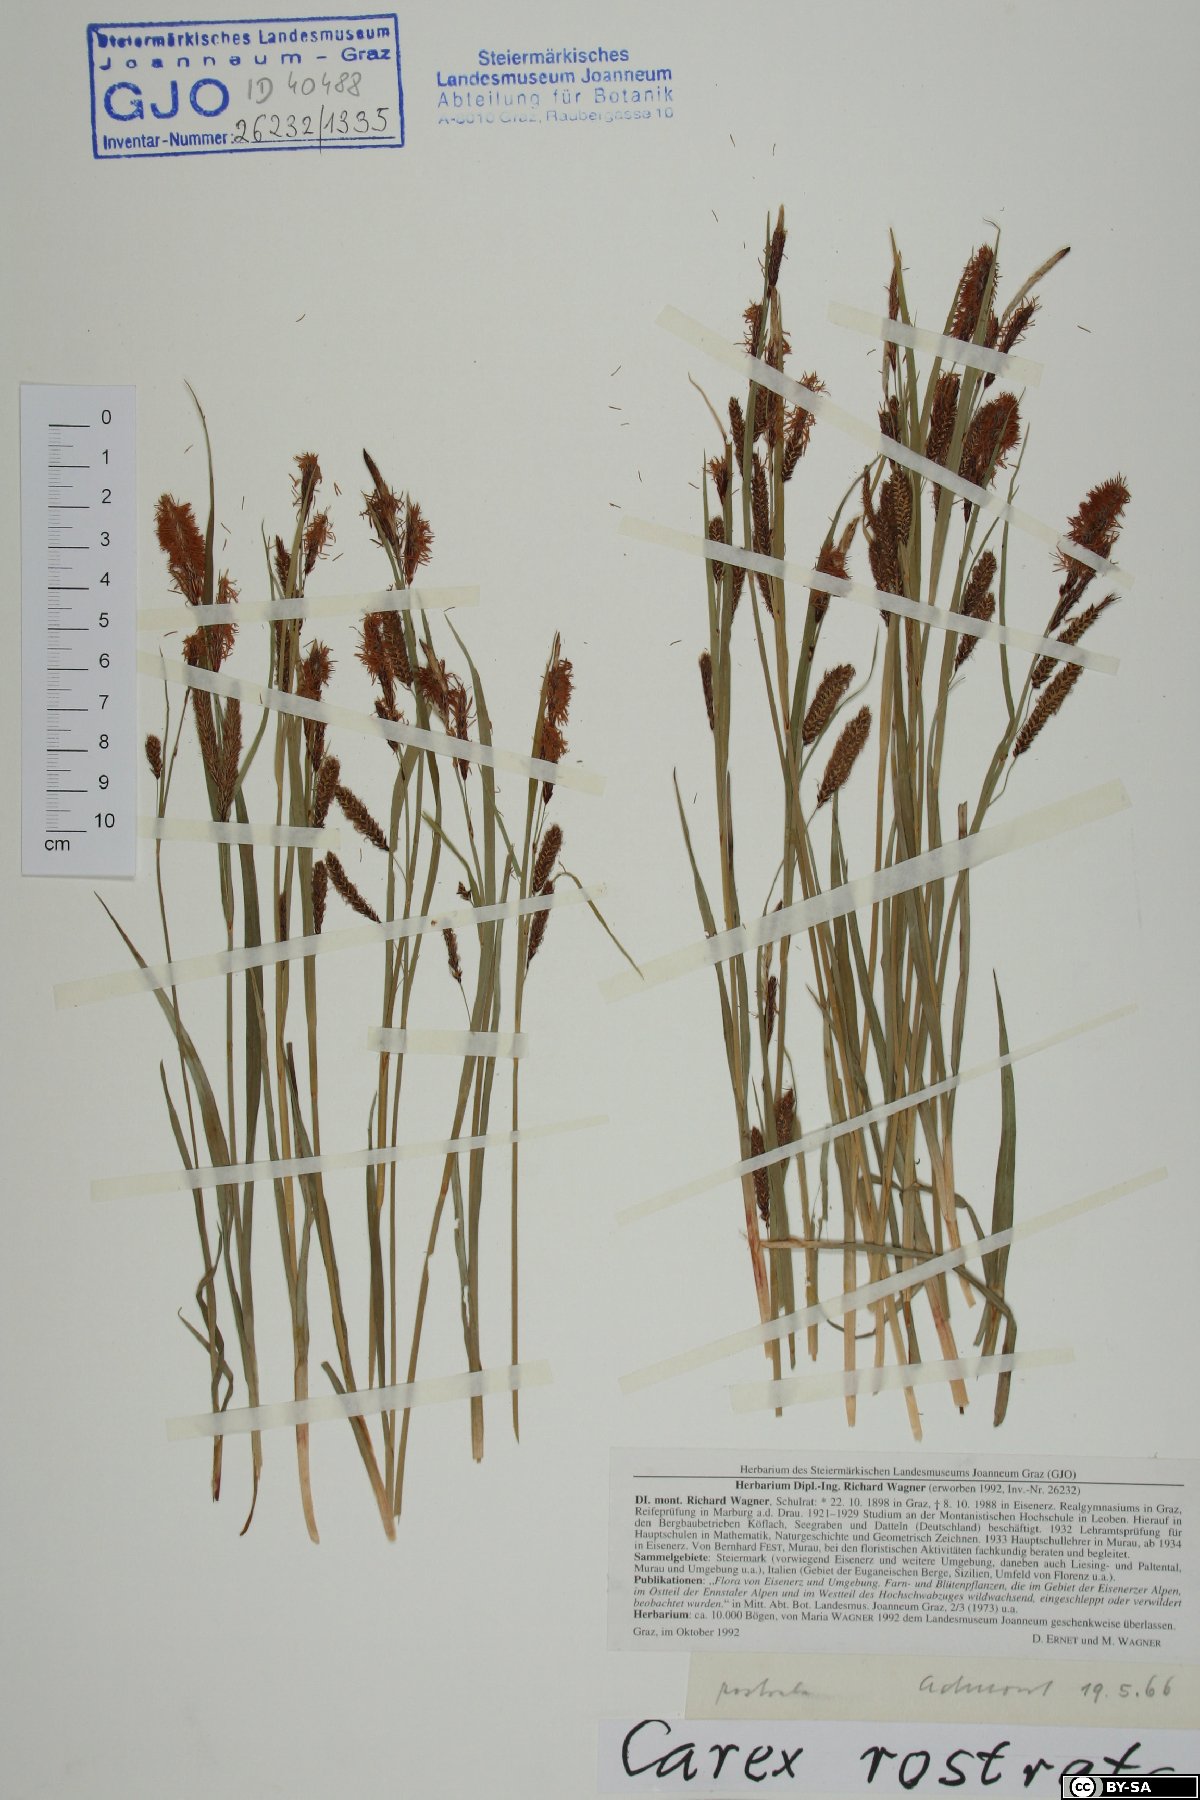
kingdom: Plantae
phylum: Tracheophyta
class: Liliopsida
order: Poales
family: Cyperaceae
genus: Carex
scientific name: Carex rostrata
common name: Bottle sedge
